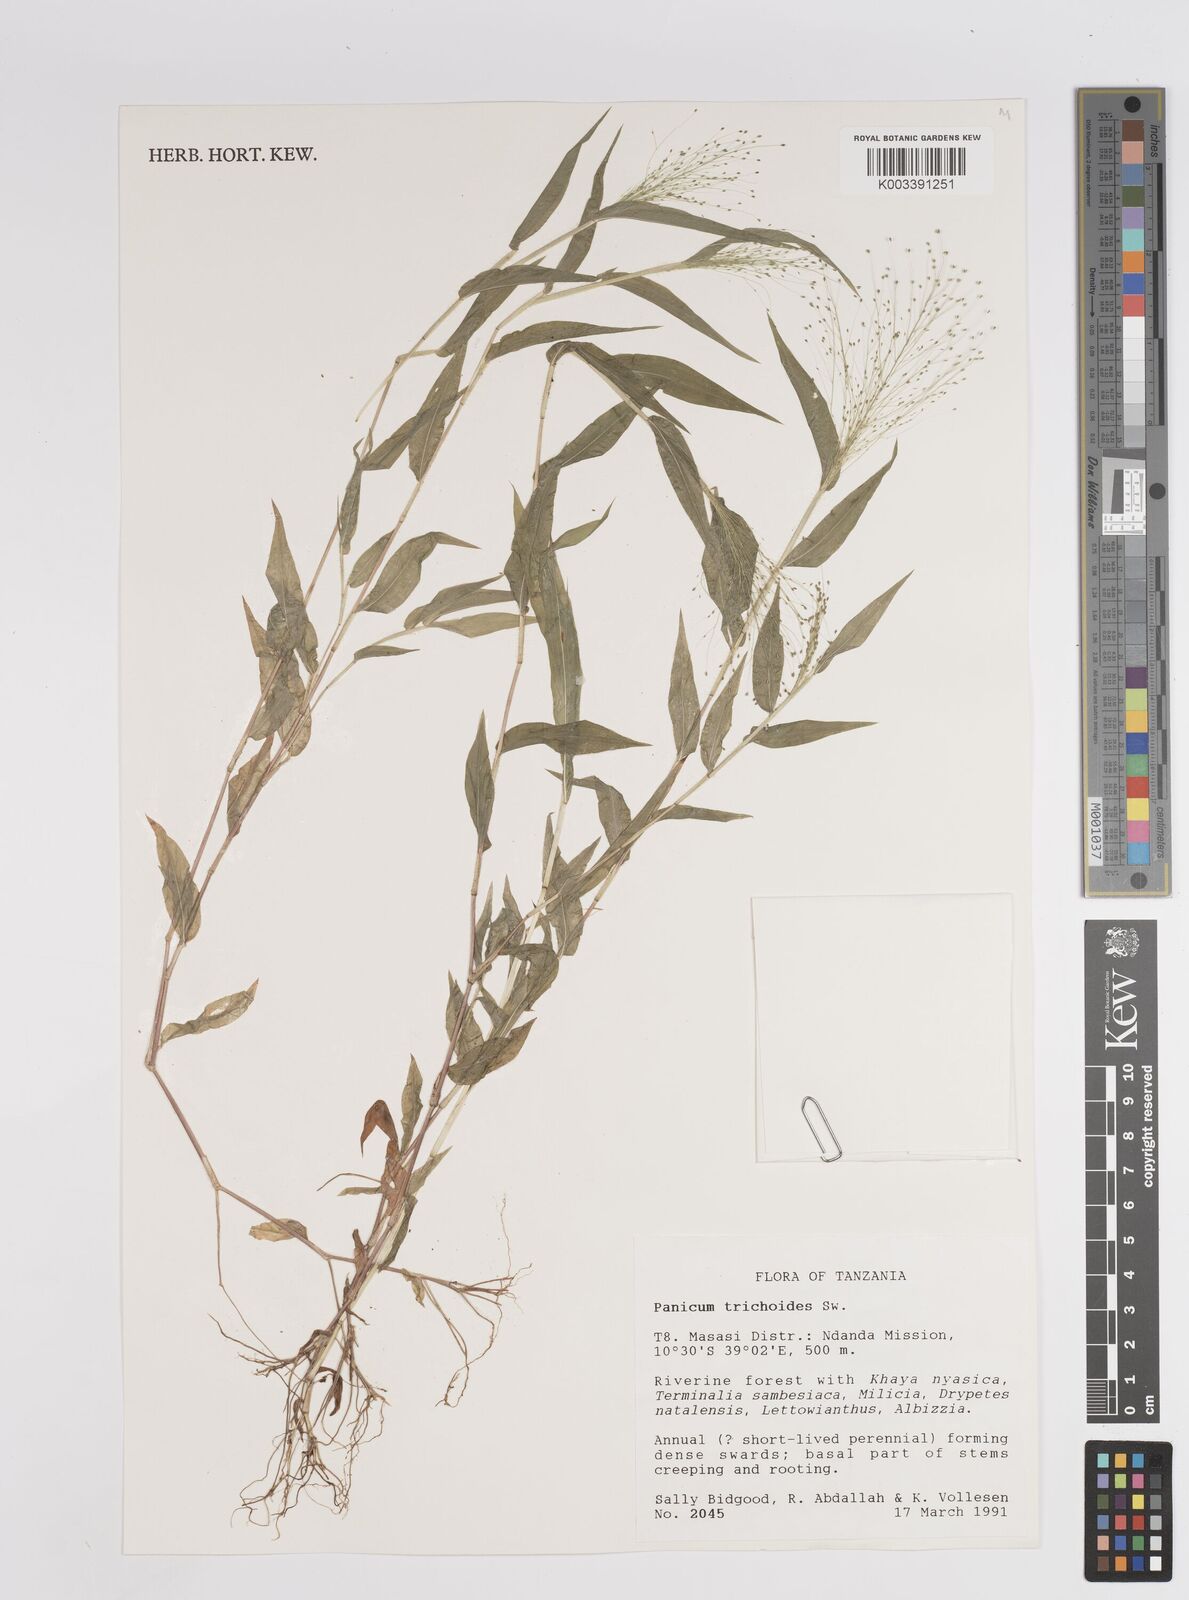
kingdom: Plantae
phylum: Tracheophyta
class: Liliopsida
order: Poales
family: Poaceae
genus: Panicum
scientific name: Panicum trichoides
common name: Tickle grass
